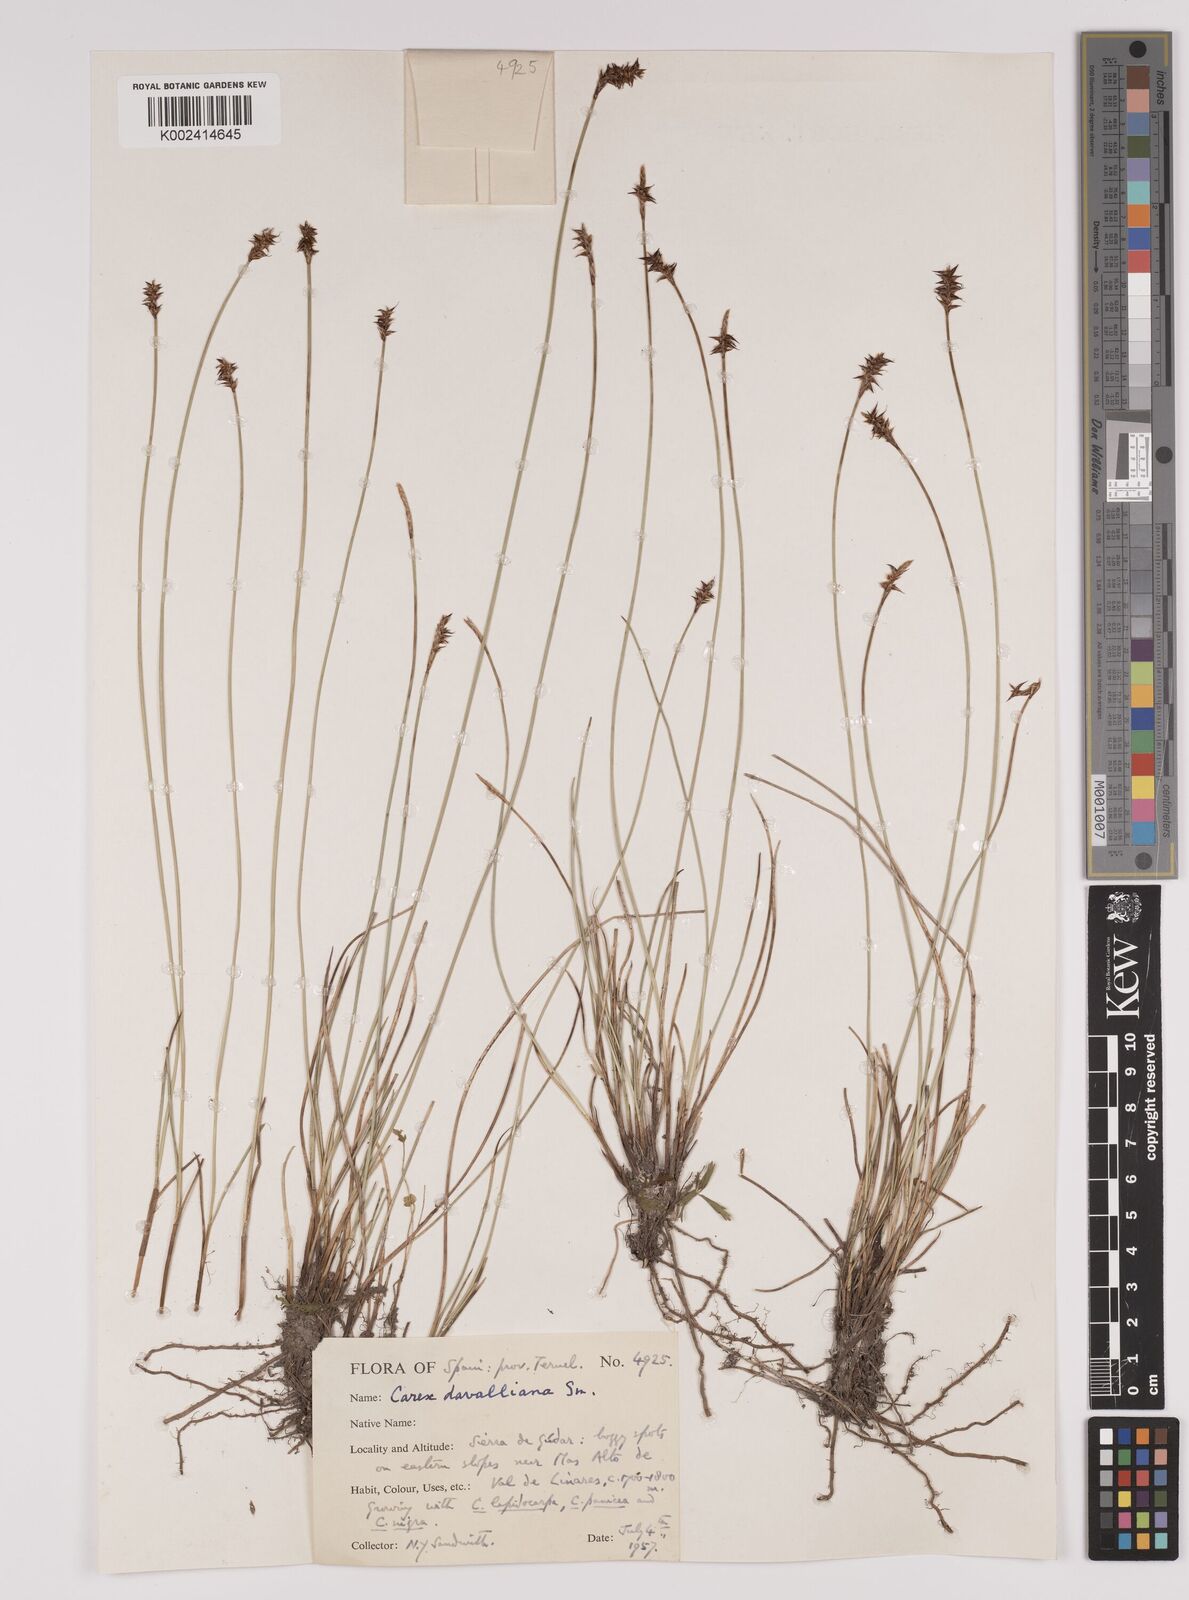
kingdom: Plantae
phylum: Tracheophyta
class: Liliopsida
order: Poales
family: Cyperaceae
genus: Carex
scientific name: Carex davalliana
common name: Davall's sedge
